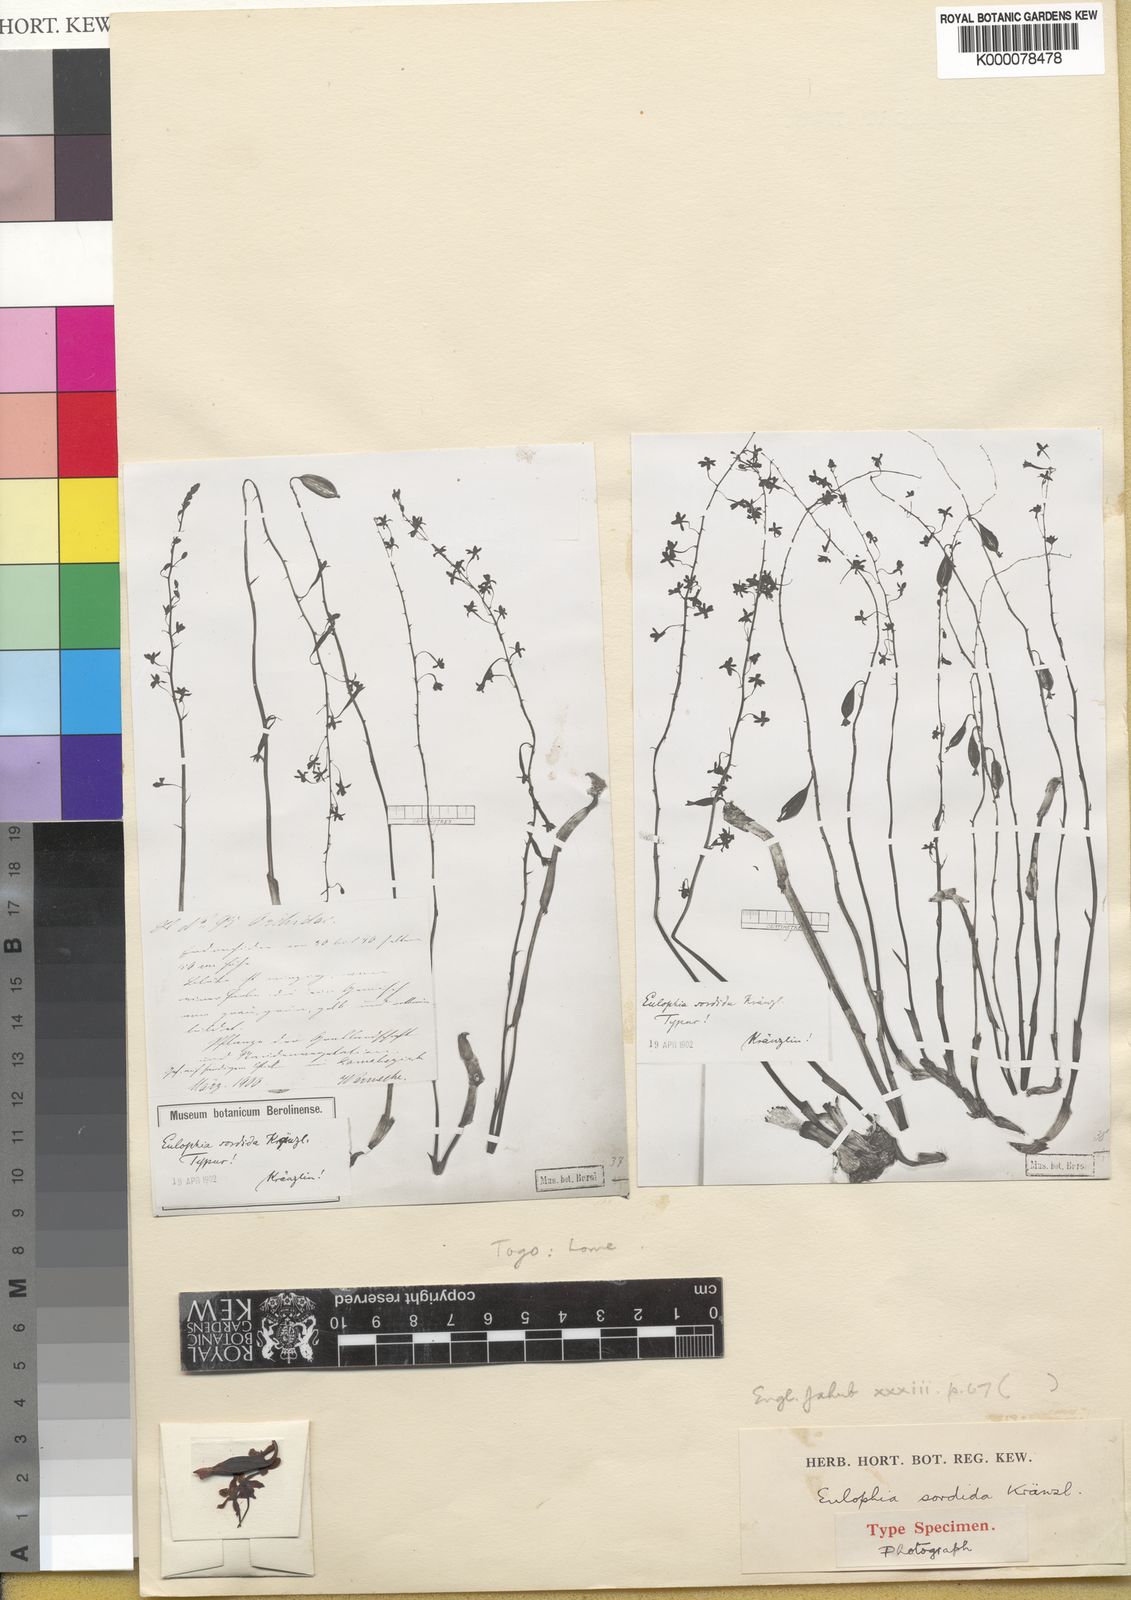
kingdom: Plantae
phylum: Tracheophyta
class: Liliopsida
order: Asparagales
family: Orchidaceae
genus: Eulophia
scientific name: Eulophia pyrophila
